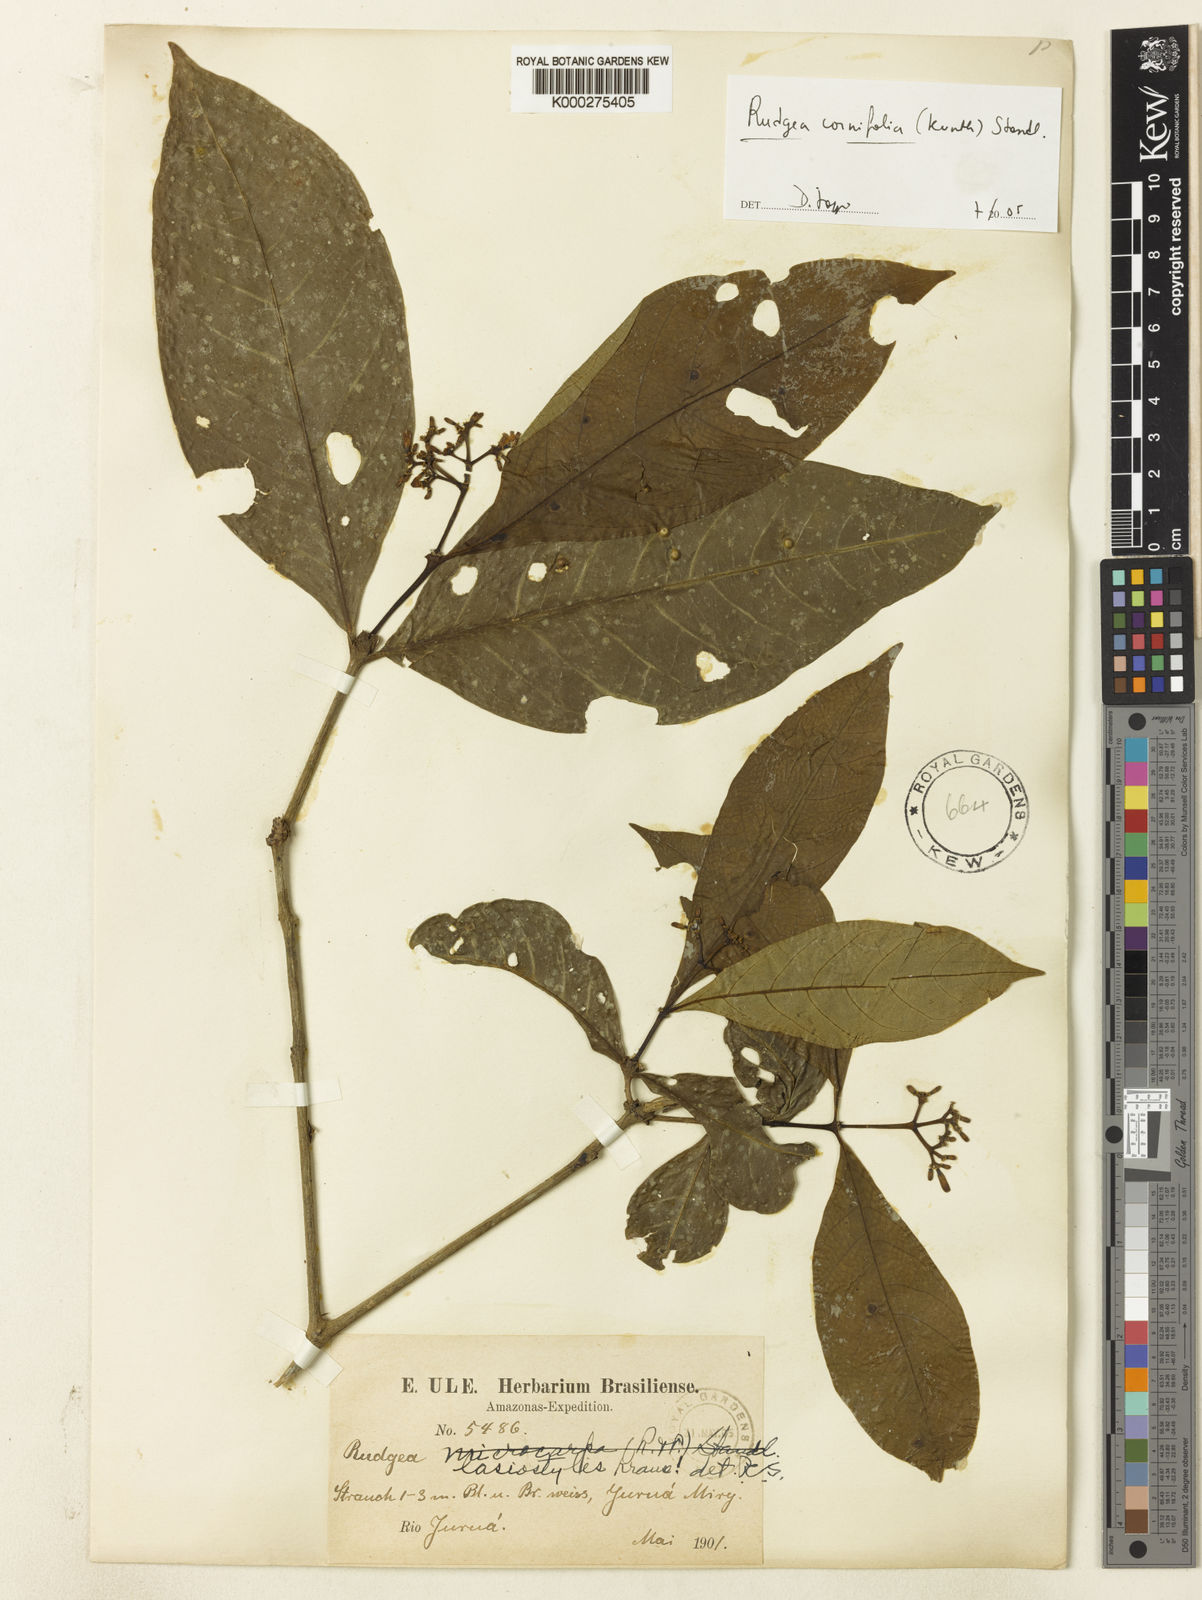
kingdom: Plantae
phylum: Tracheophyta
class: Magnoliopsida
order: Gentianales
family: Rubiaceae
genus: Rudgea
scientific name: Rudgea cornifolia
